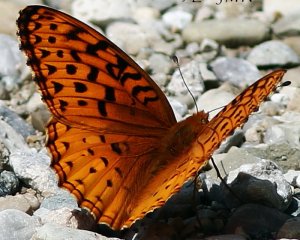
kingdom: Animalia
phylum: Arthropoda
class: Insecta
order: Lepidoptera
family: Nymphalidae
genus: Speyeria
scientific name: Speyeria aphrodite
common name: Aphrodite Fritillary
